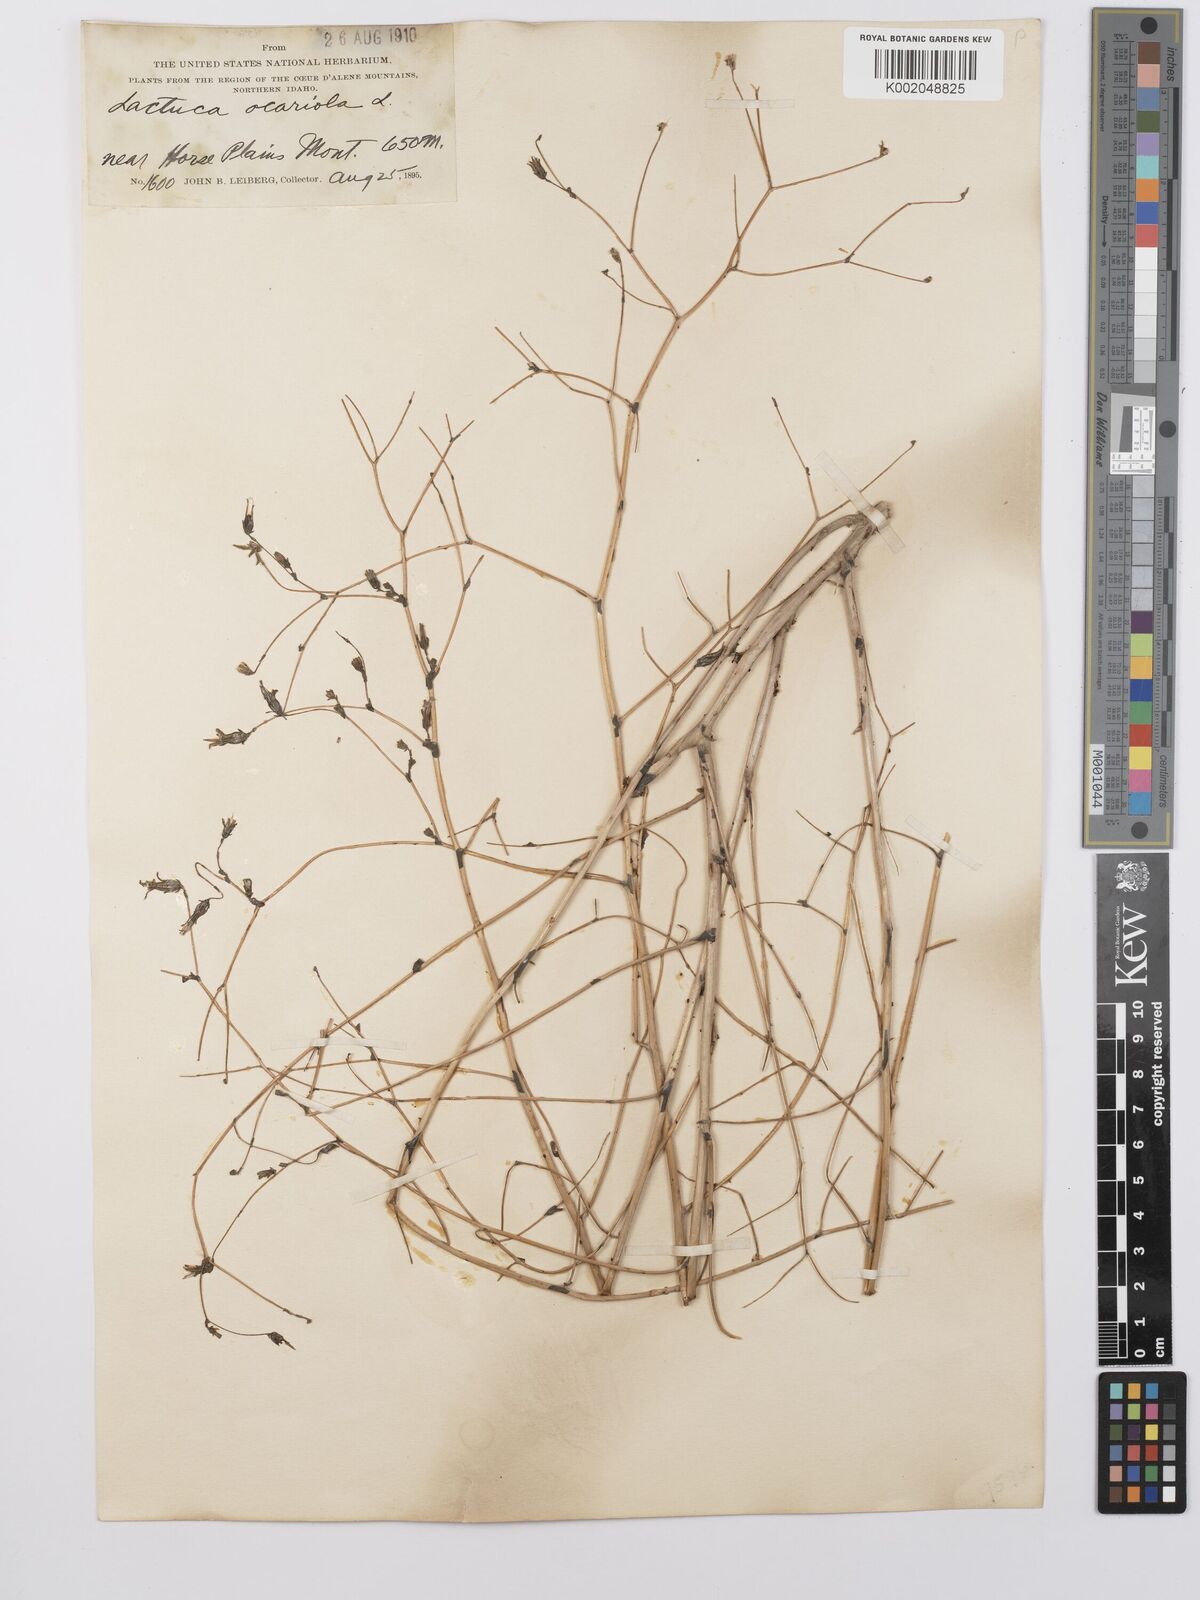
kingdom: Plantae
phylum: Tracheophyta
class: Magnoliopsida
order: Asterales
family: Asteraceae
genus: Lactuca
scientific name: Lactuca serriola
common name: Prickly lettuce
